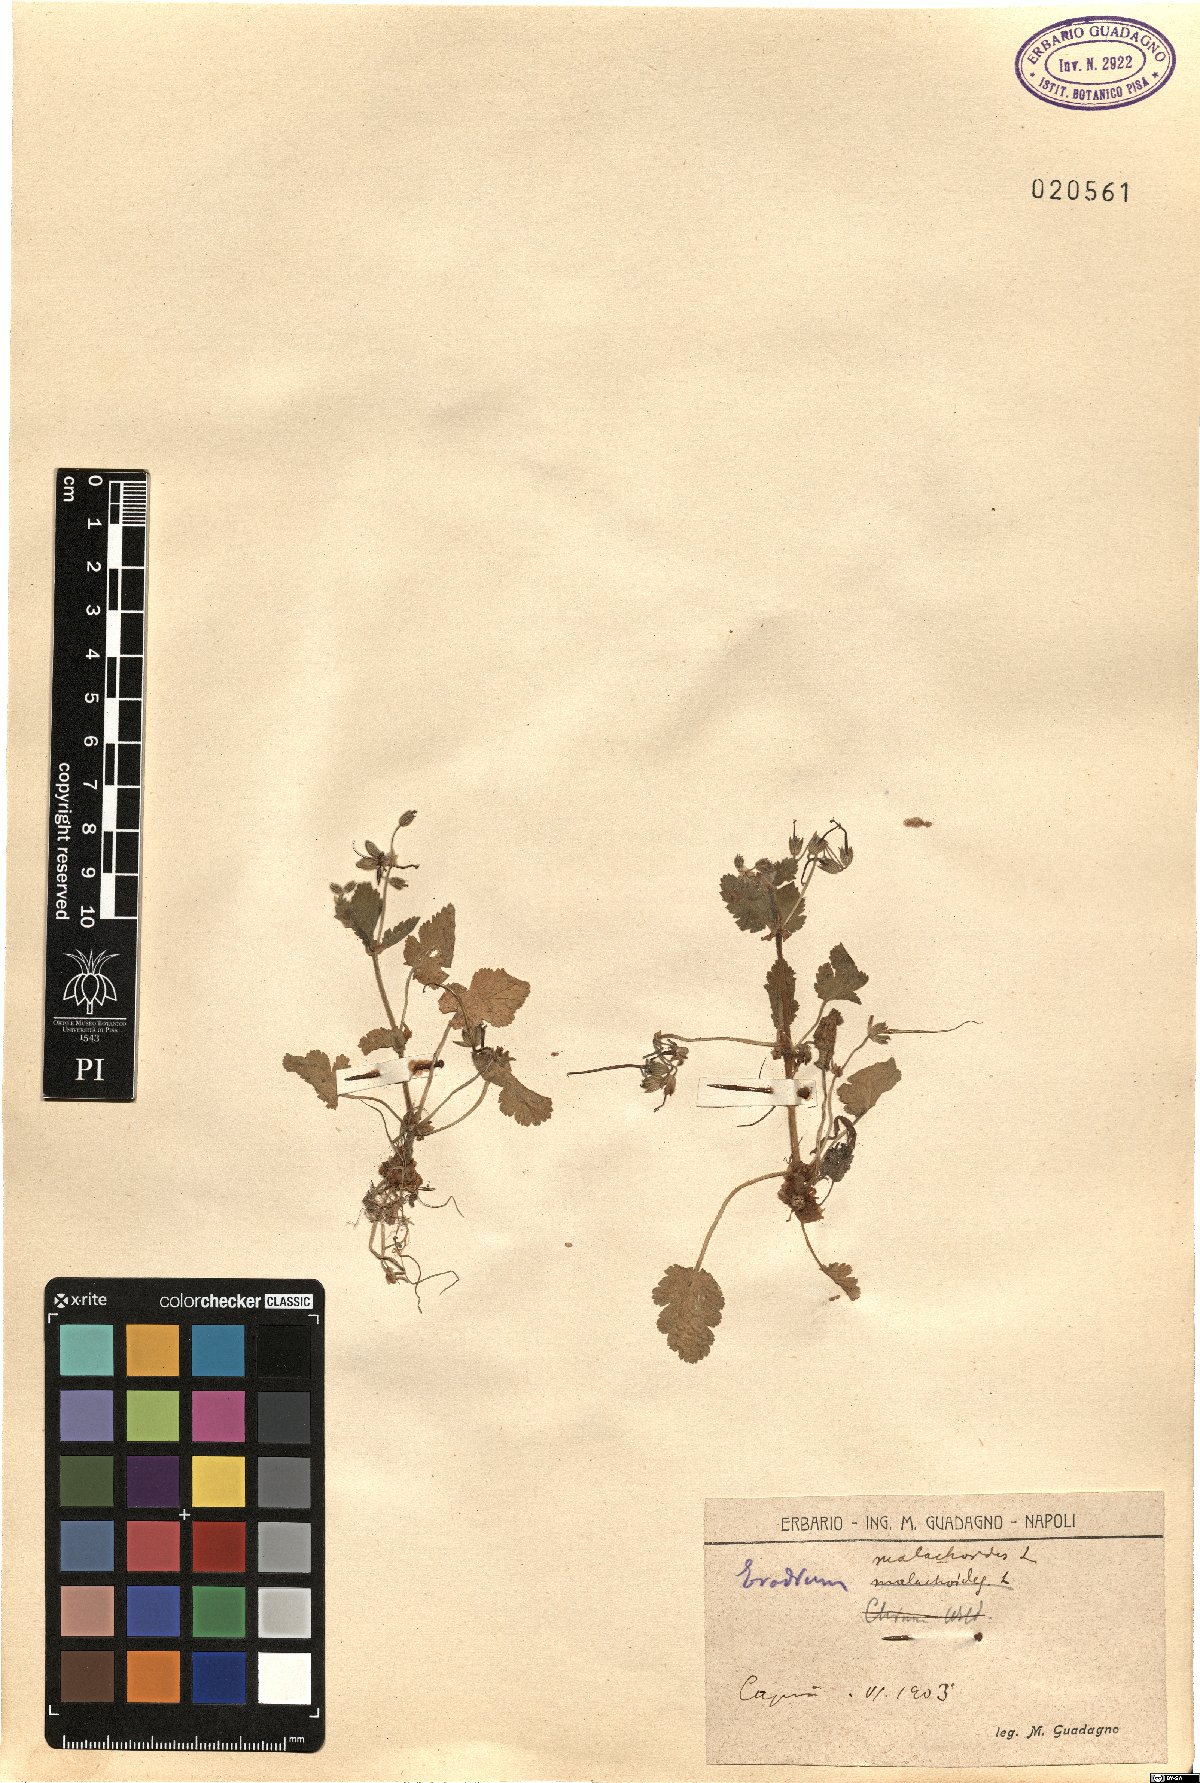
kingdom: Plantae
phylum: Tracheophyta
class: Magnoliopsida
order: Geraniales
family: Geraniaceae
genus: Erodium
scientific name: Erodium malacoides
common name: Soft stork's-bill
